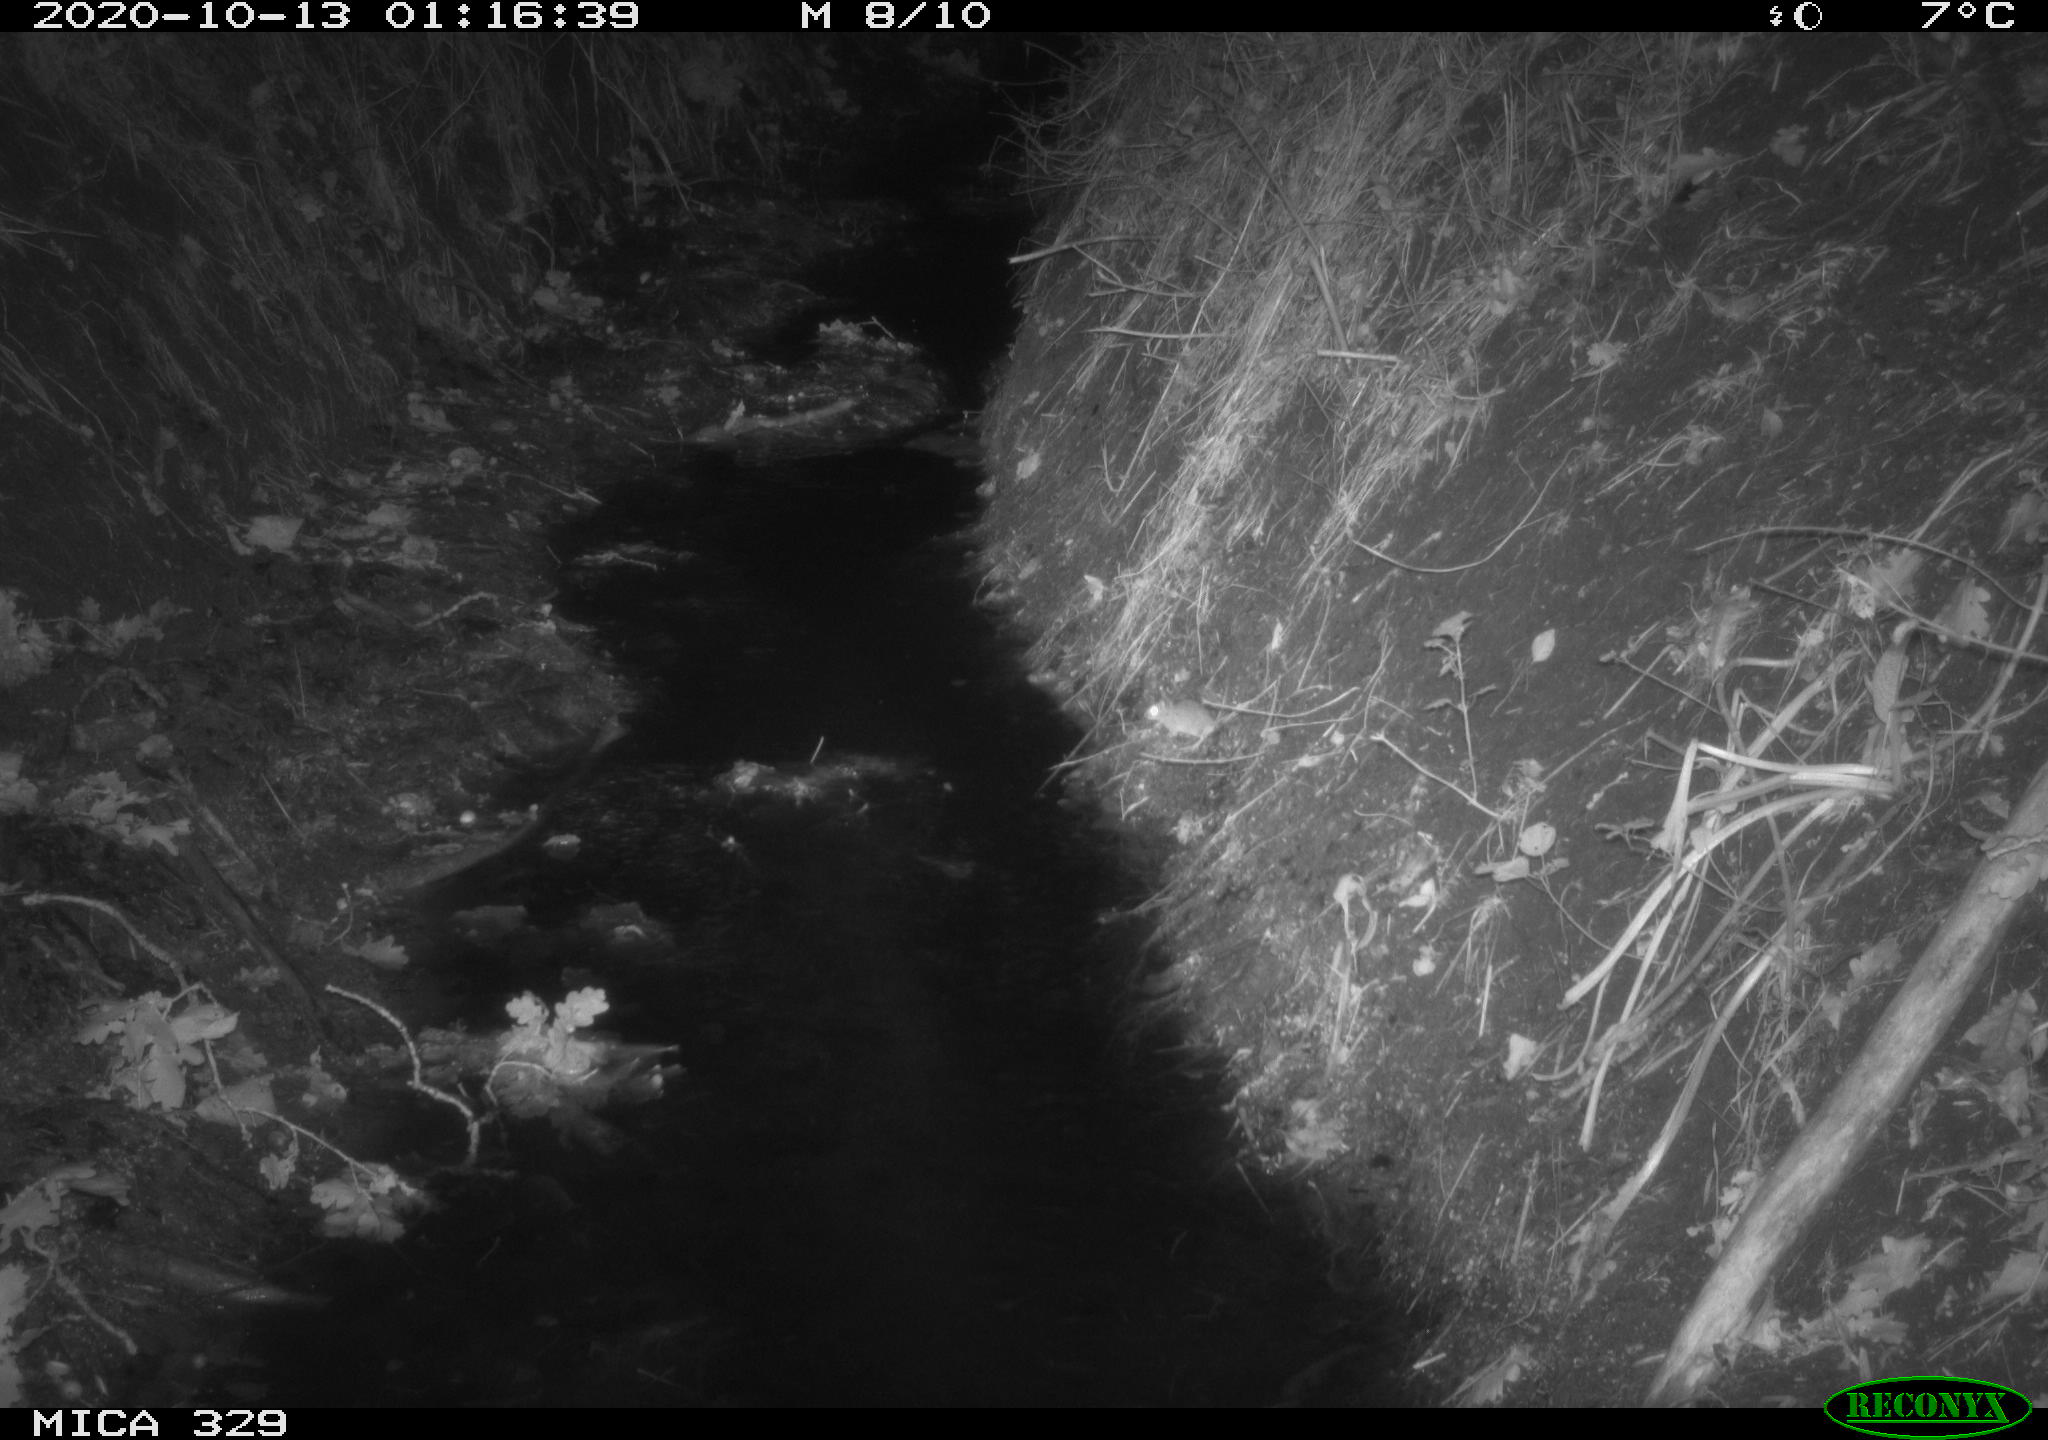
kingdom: Animalia
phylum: Chordata
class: Mammalia
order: Rodentia
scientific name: Rodentia
